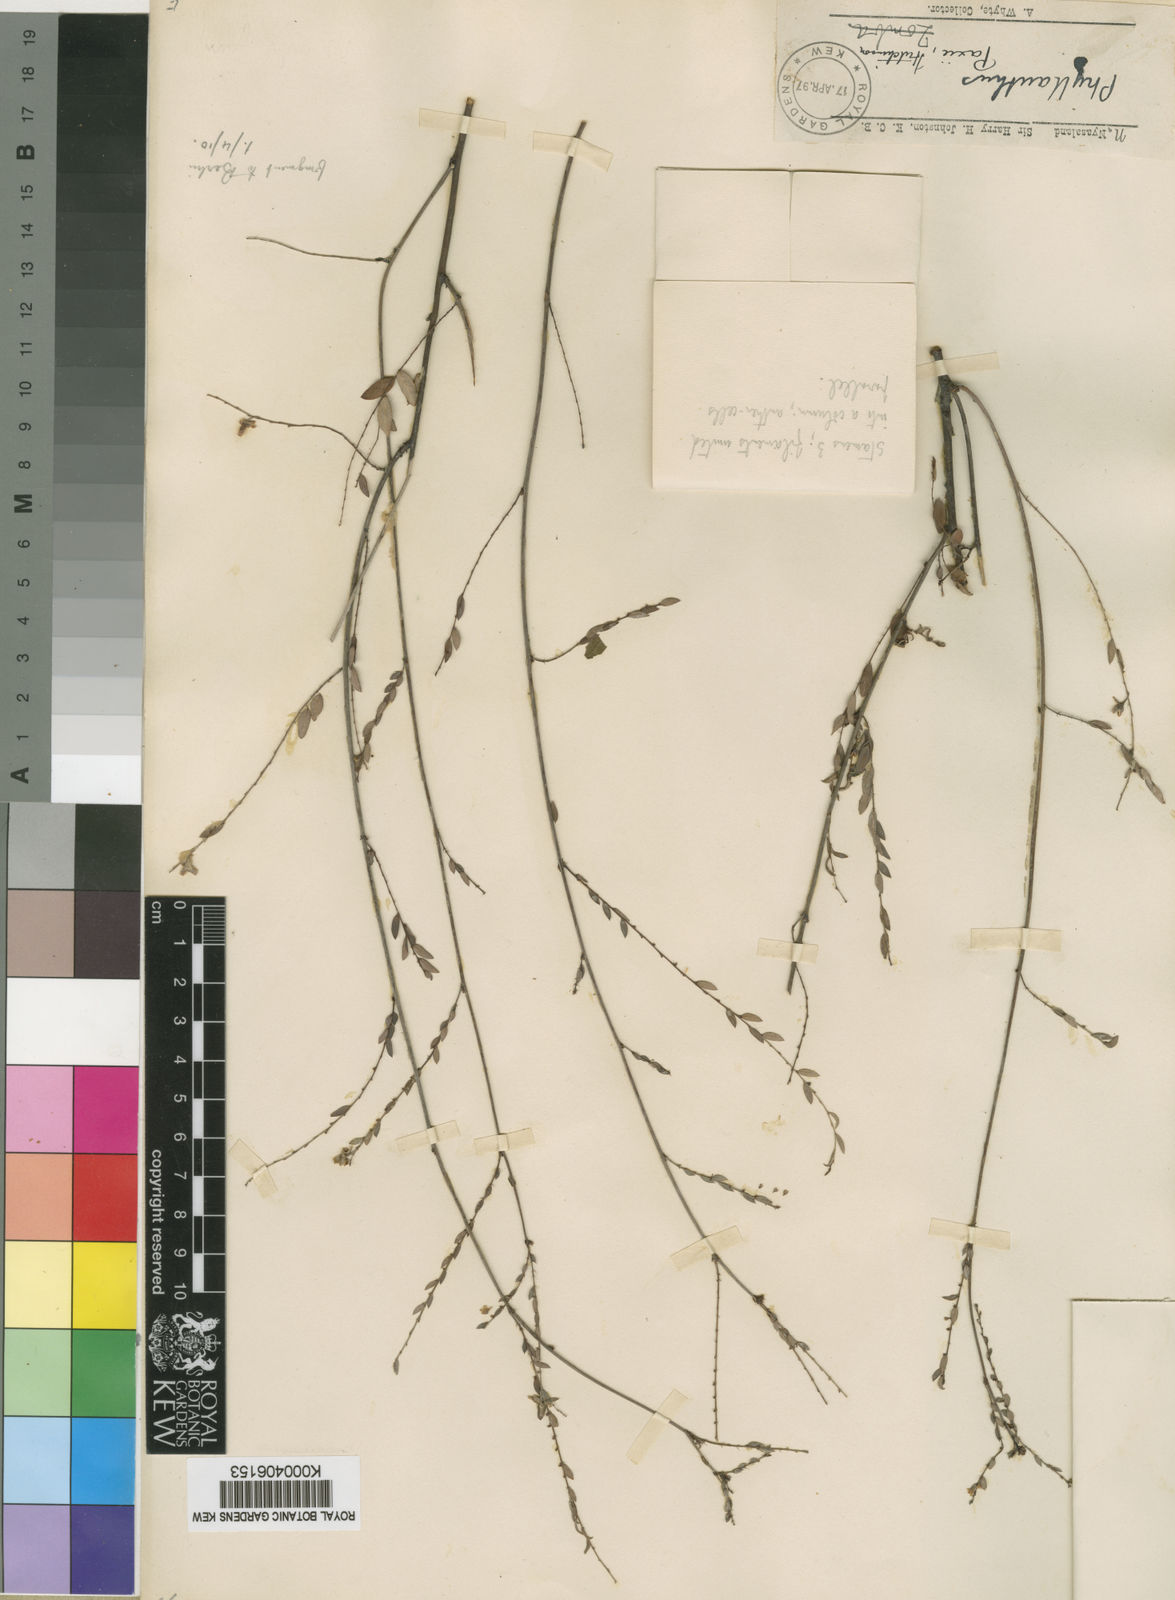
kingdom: Plantae
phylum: Tracheophyta
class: Magnoliopsida
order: Malpighiales
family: Phyllanthaceae
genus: Phyllanthus
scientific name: Phyllanthus
